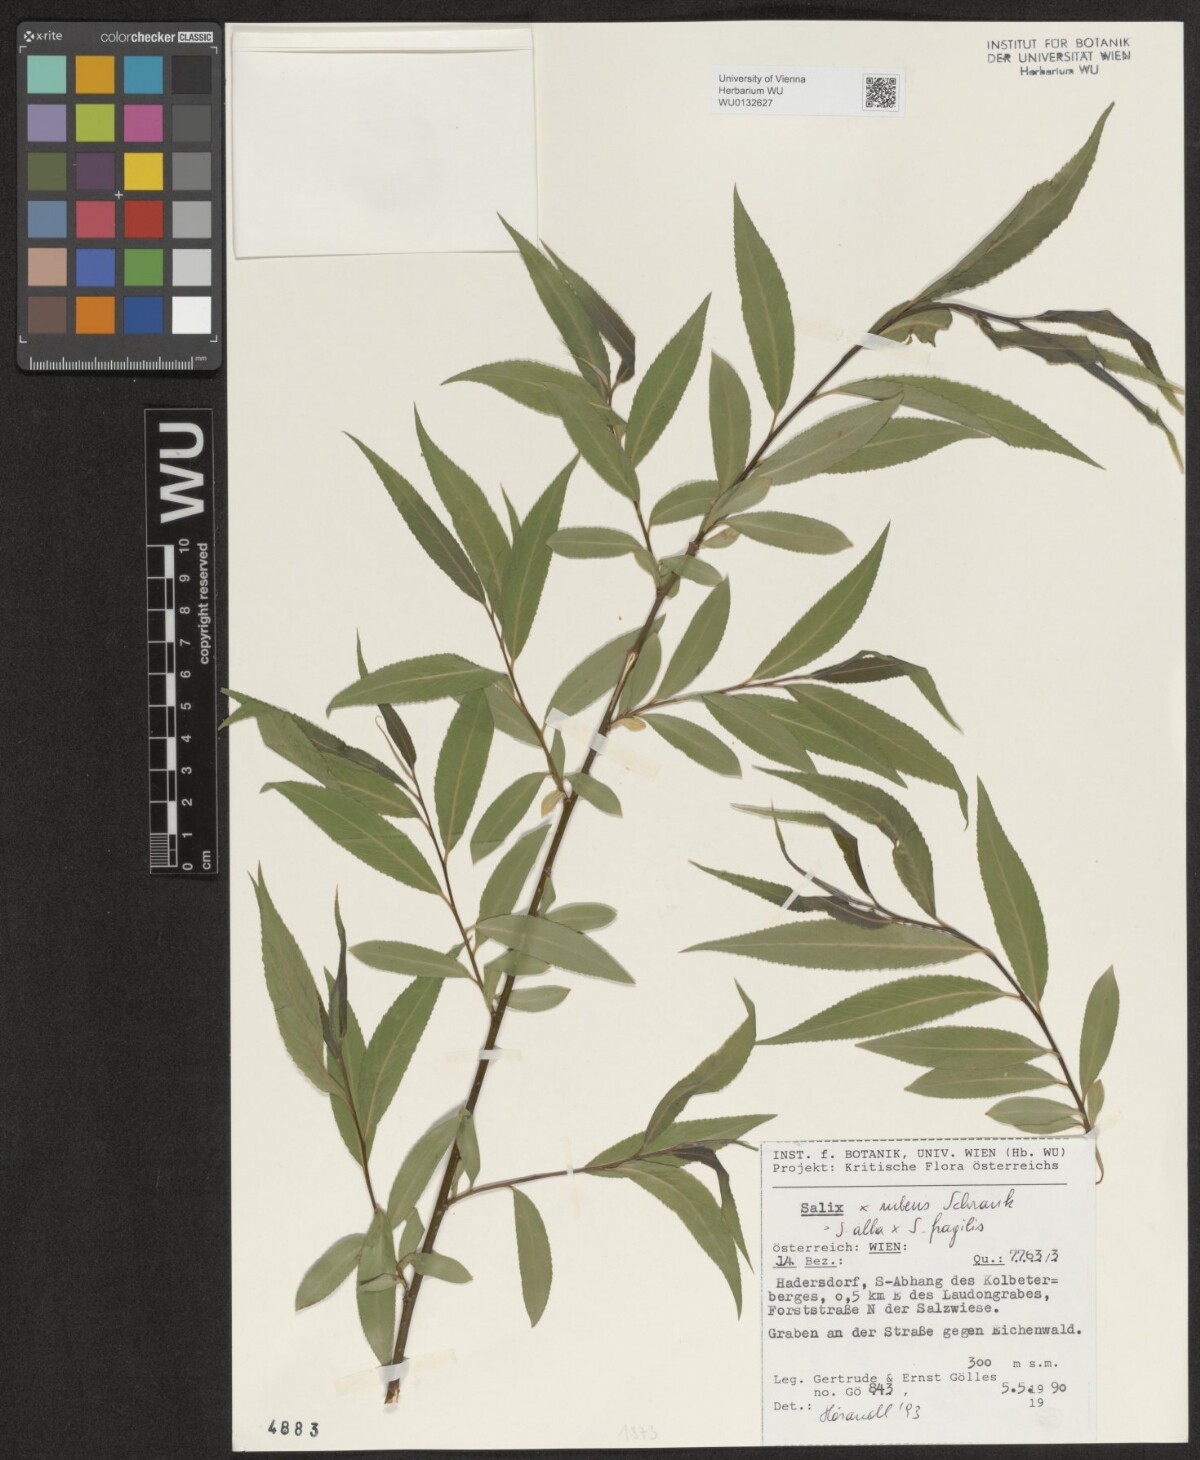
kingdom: Plantae
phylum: Tracheophyta
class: Magnoliopsida
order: Malpighiales
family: Salicaceae
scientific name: Salicaceae
